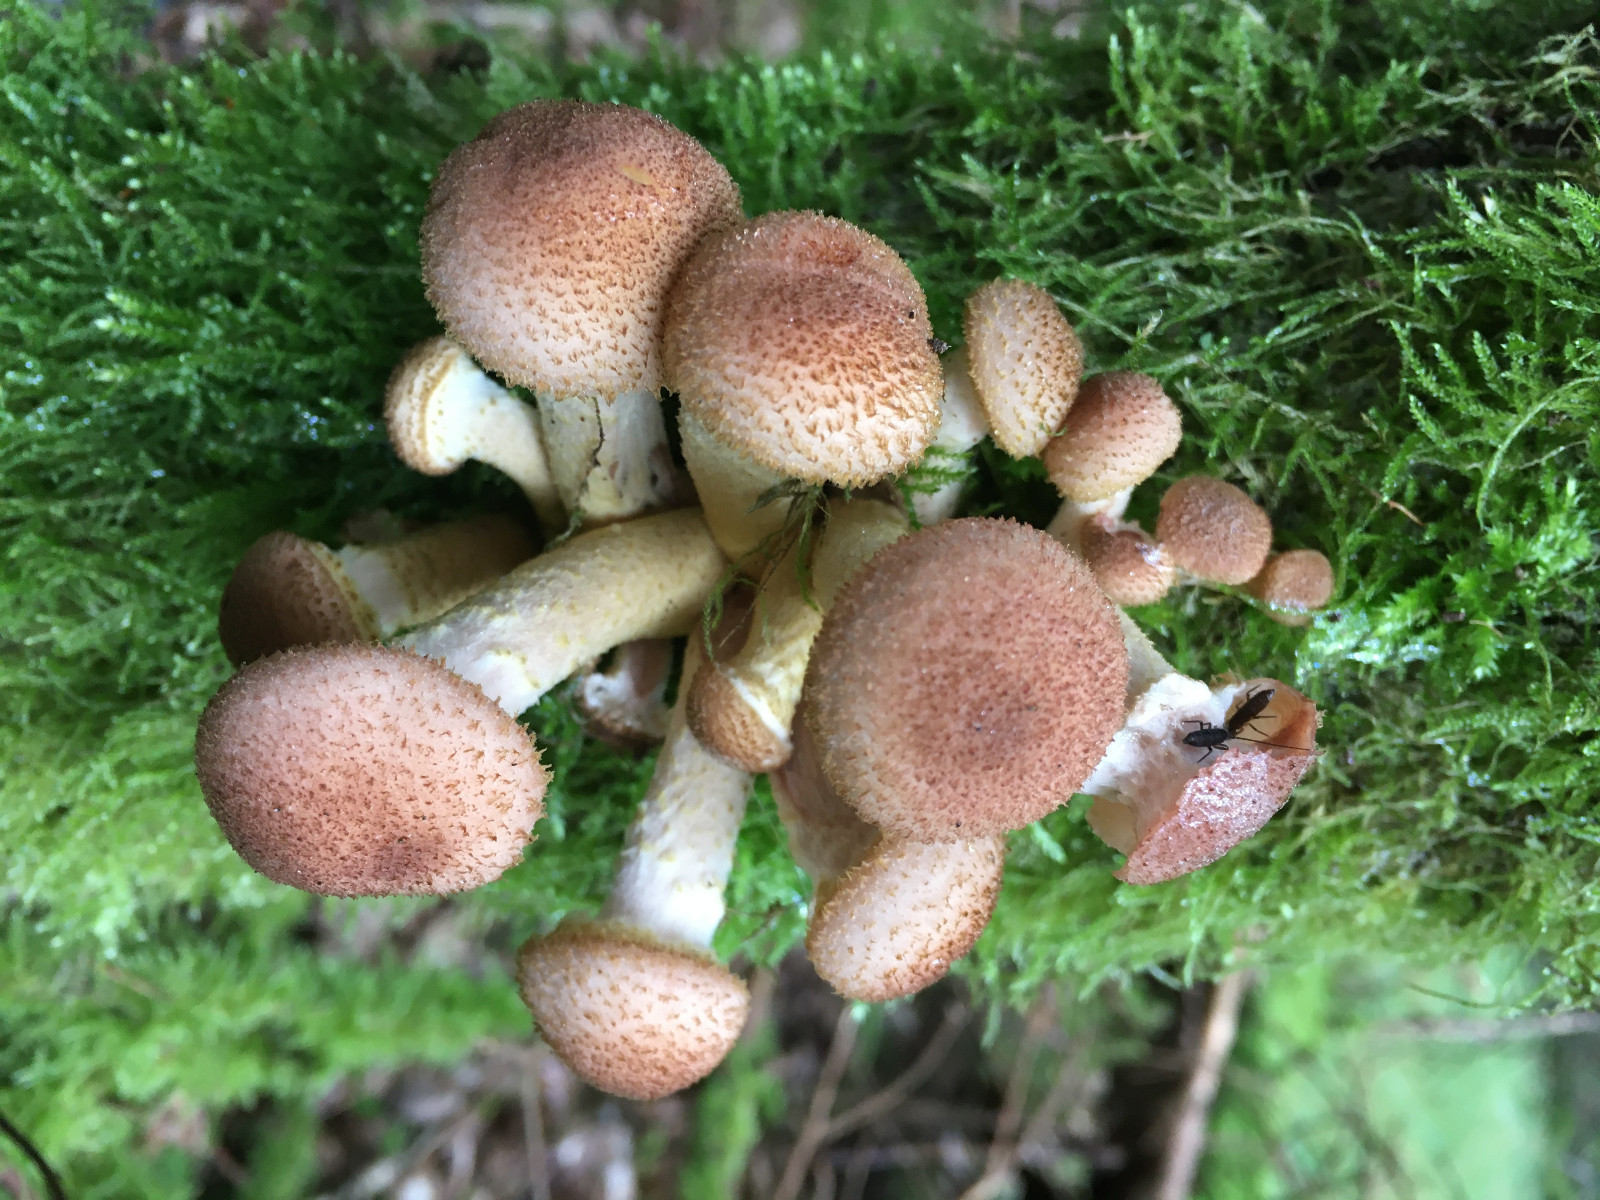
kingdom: Fungi
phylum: Basidiomycota
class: Agaricomycetes
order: Agaricales
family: Physalacriaceae
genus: Armillaria
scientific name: Armillaria ostoyae
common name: mørk honningsvamp
